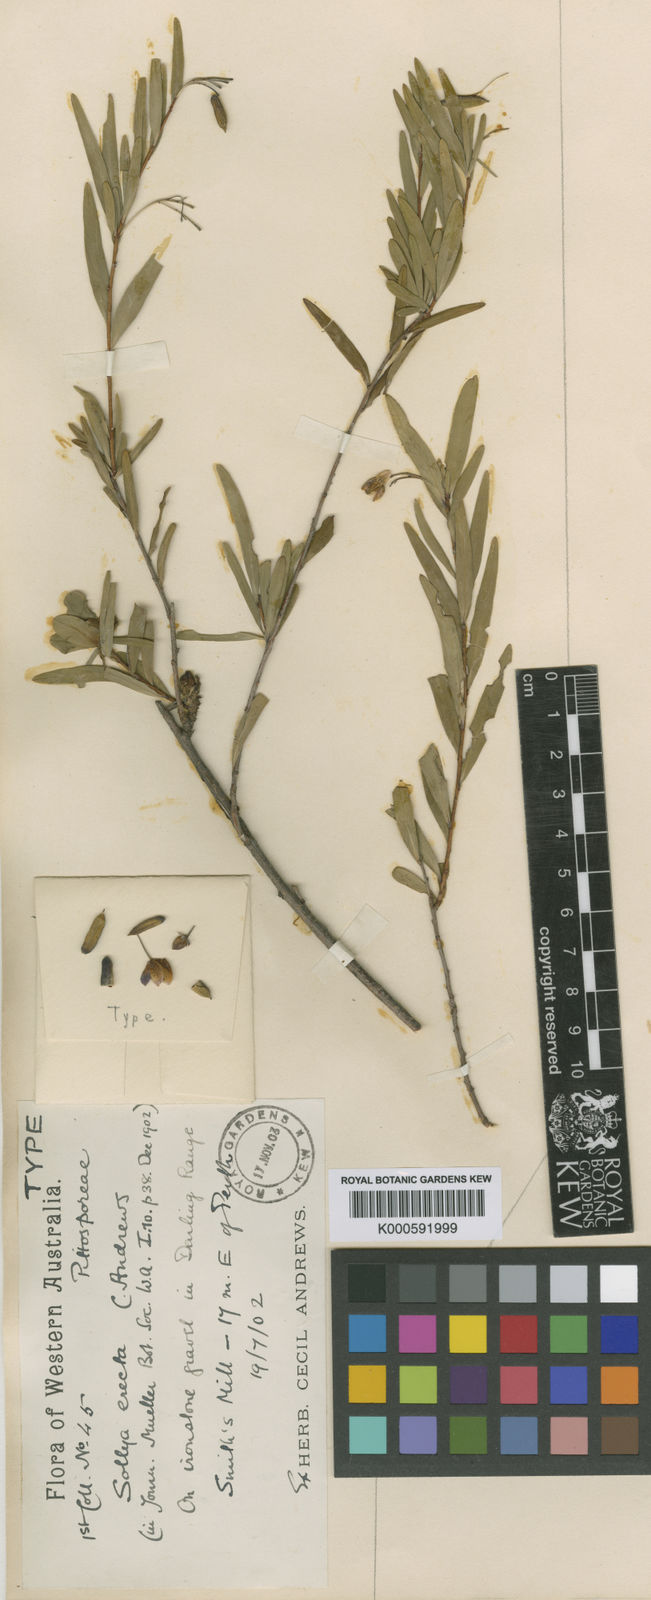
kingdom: Plantae
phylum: Tracheophyta
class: Magnoliopsida
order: Apiales
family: Pittosporaceae
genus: Billardiera
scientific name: Billardiera heterophylla
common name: Bluebell creeper
